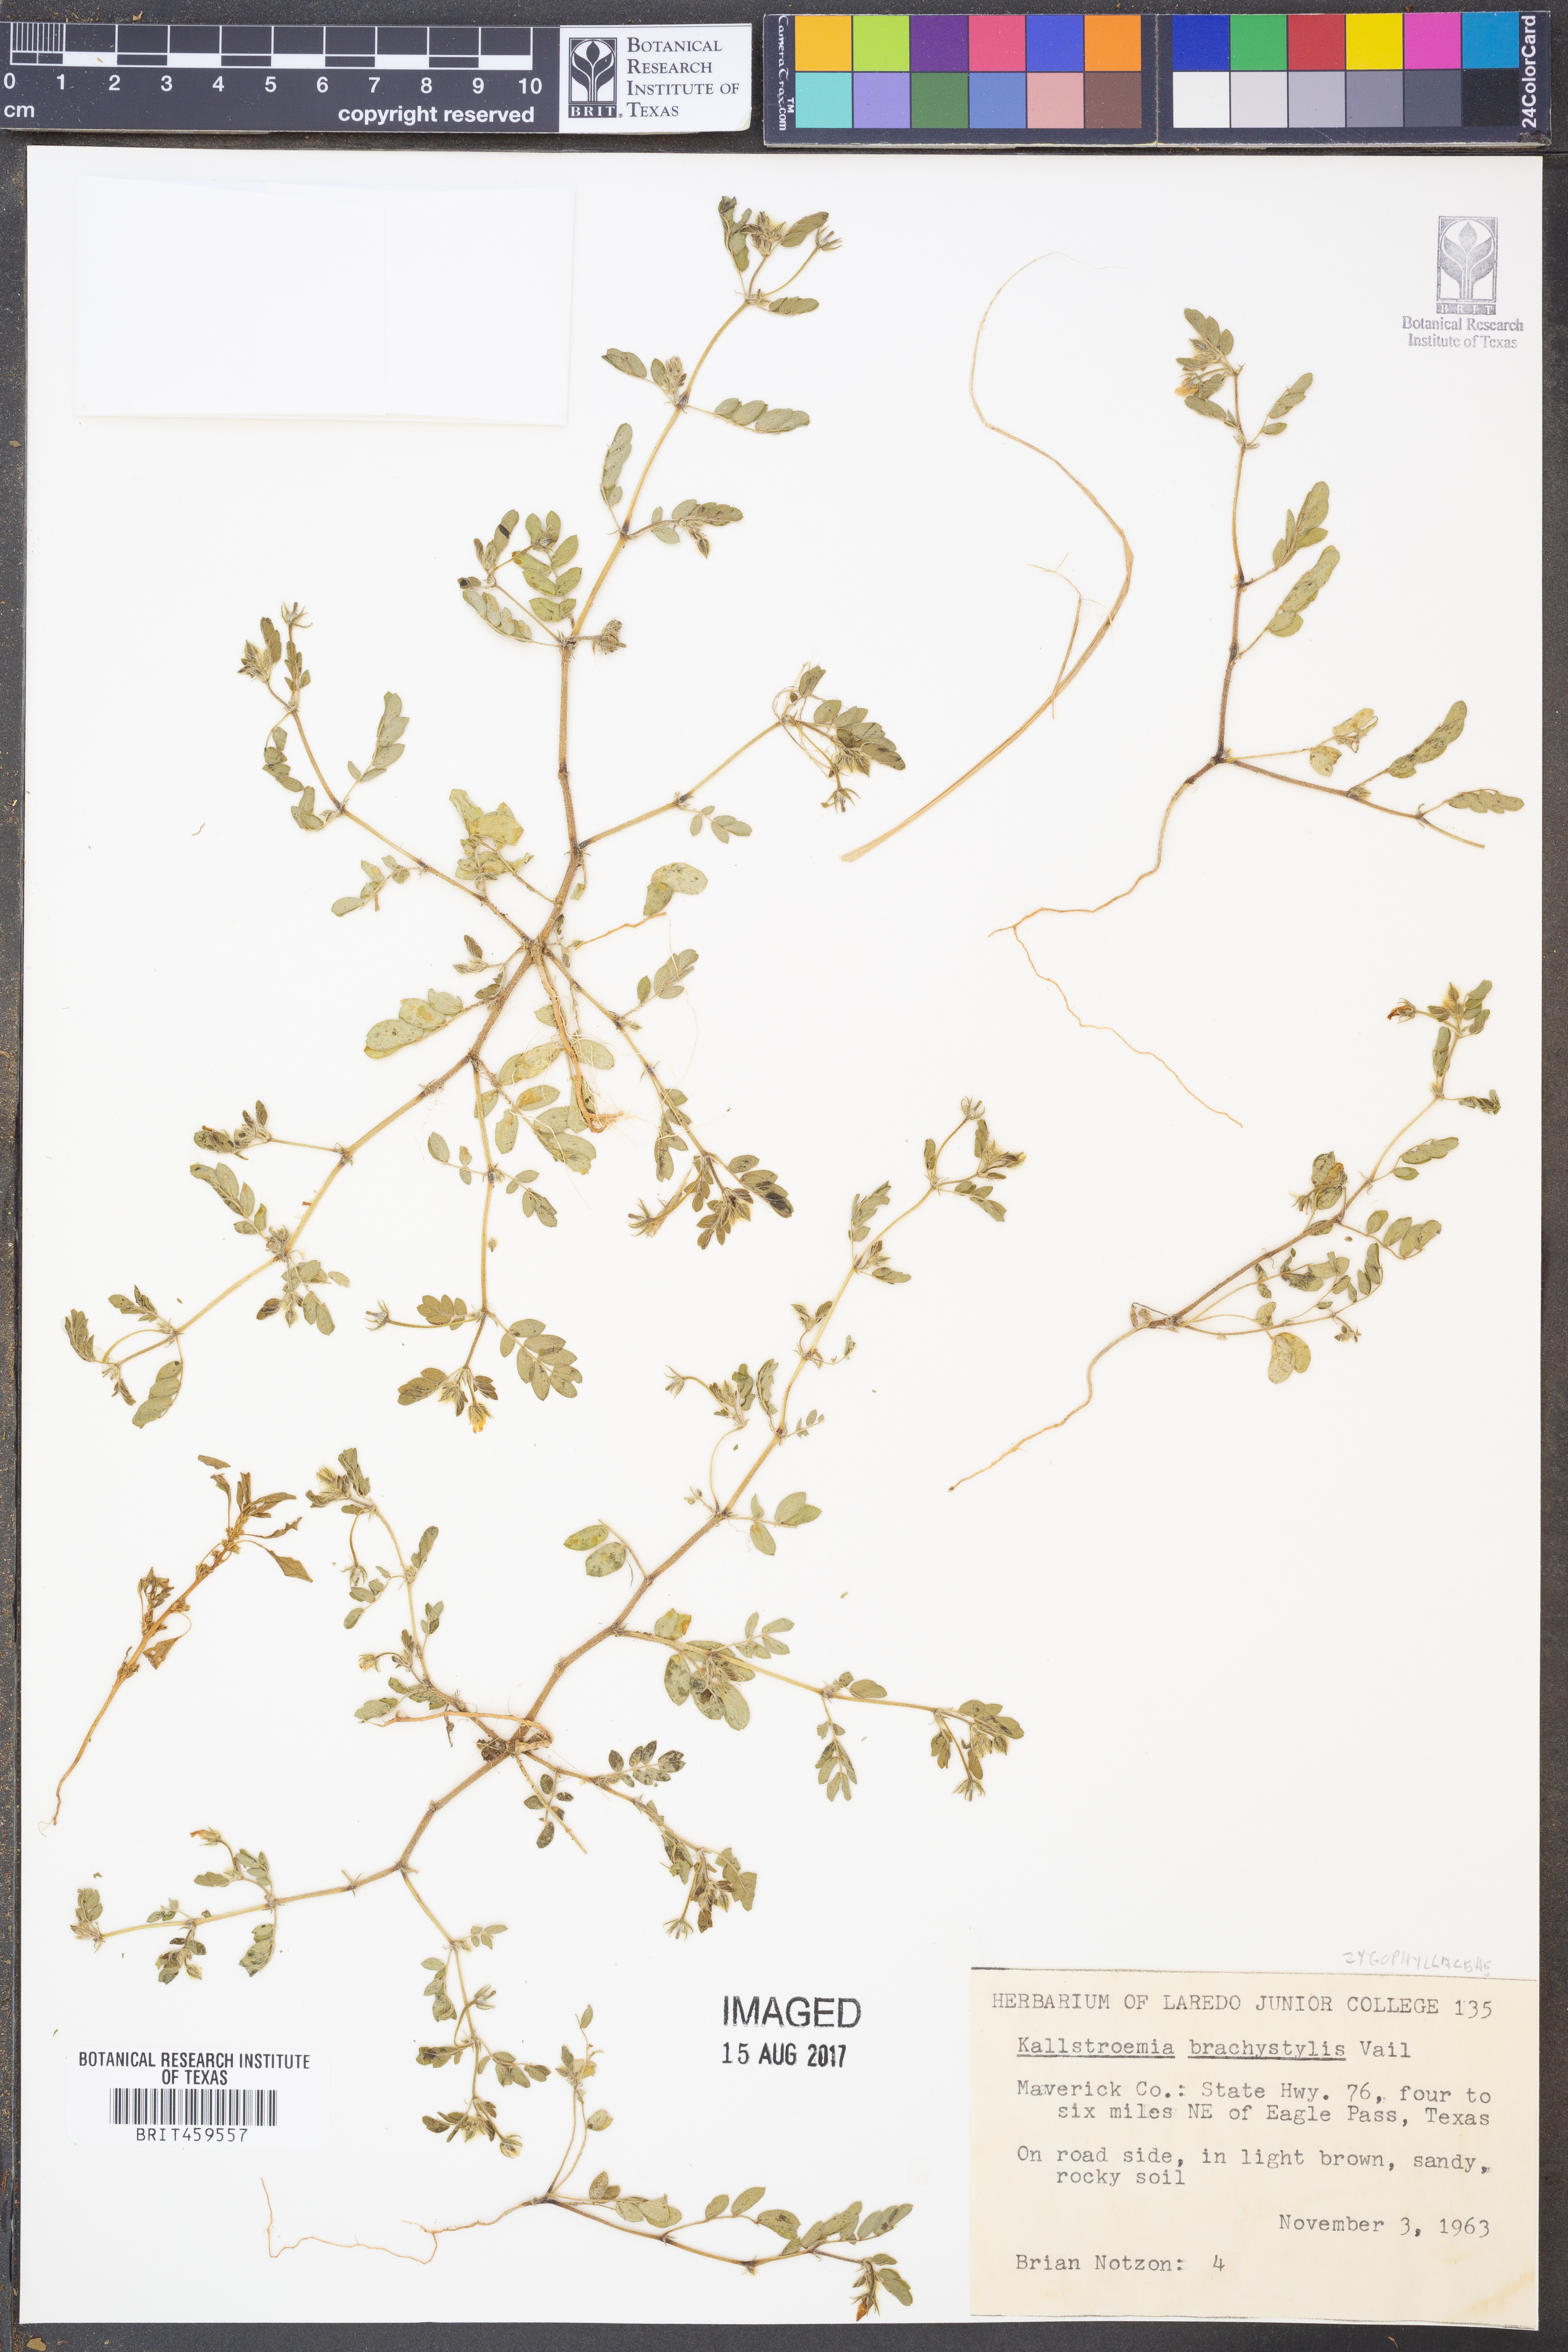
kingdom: Plantae
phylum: Tracheophyta
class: Magnoliopsida
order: Zygophyllales
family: Zygophyllaceae
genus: Kallstroemia
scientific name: Kallstroemia californica
